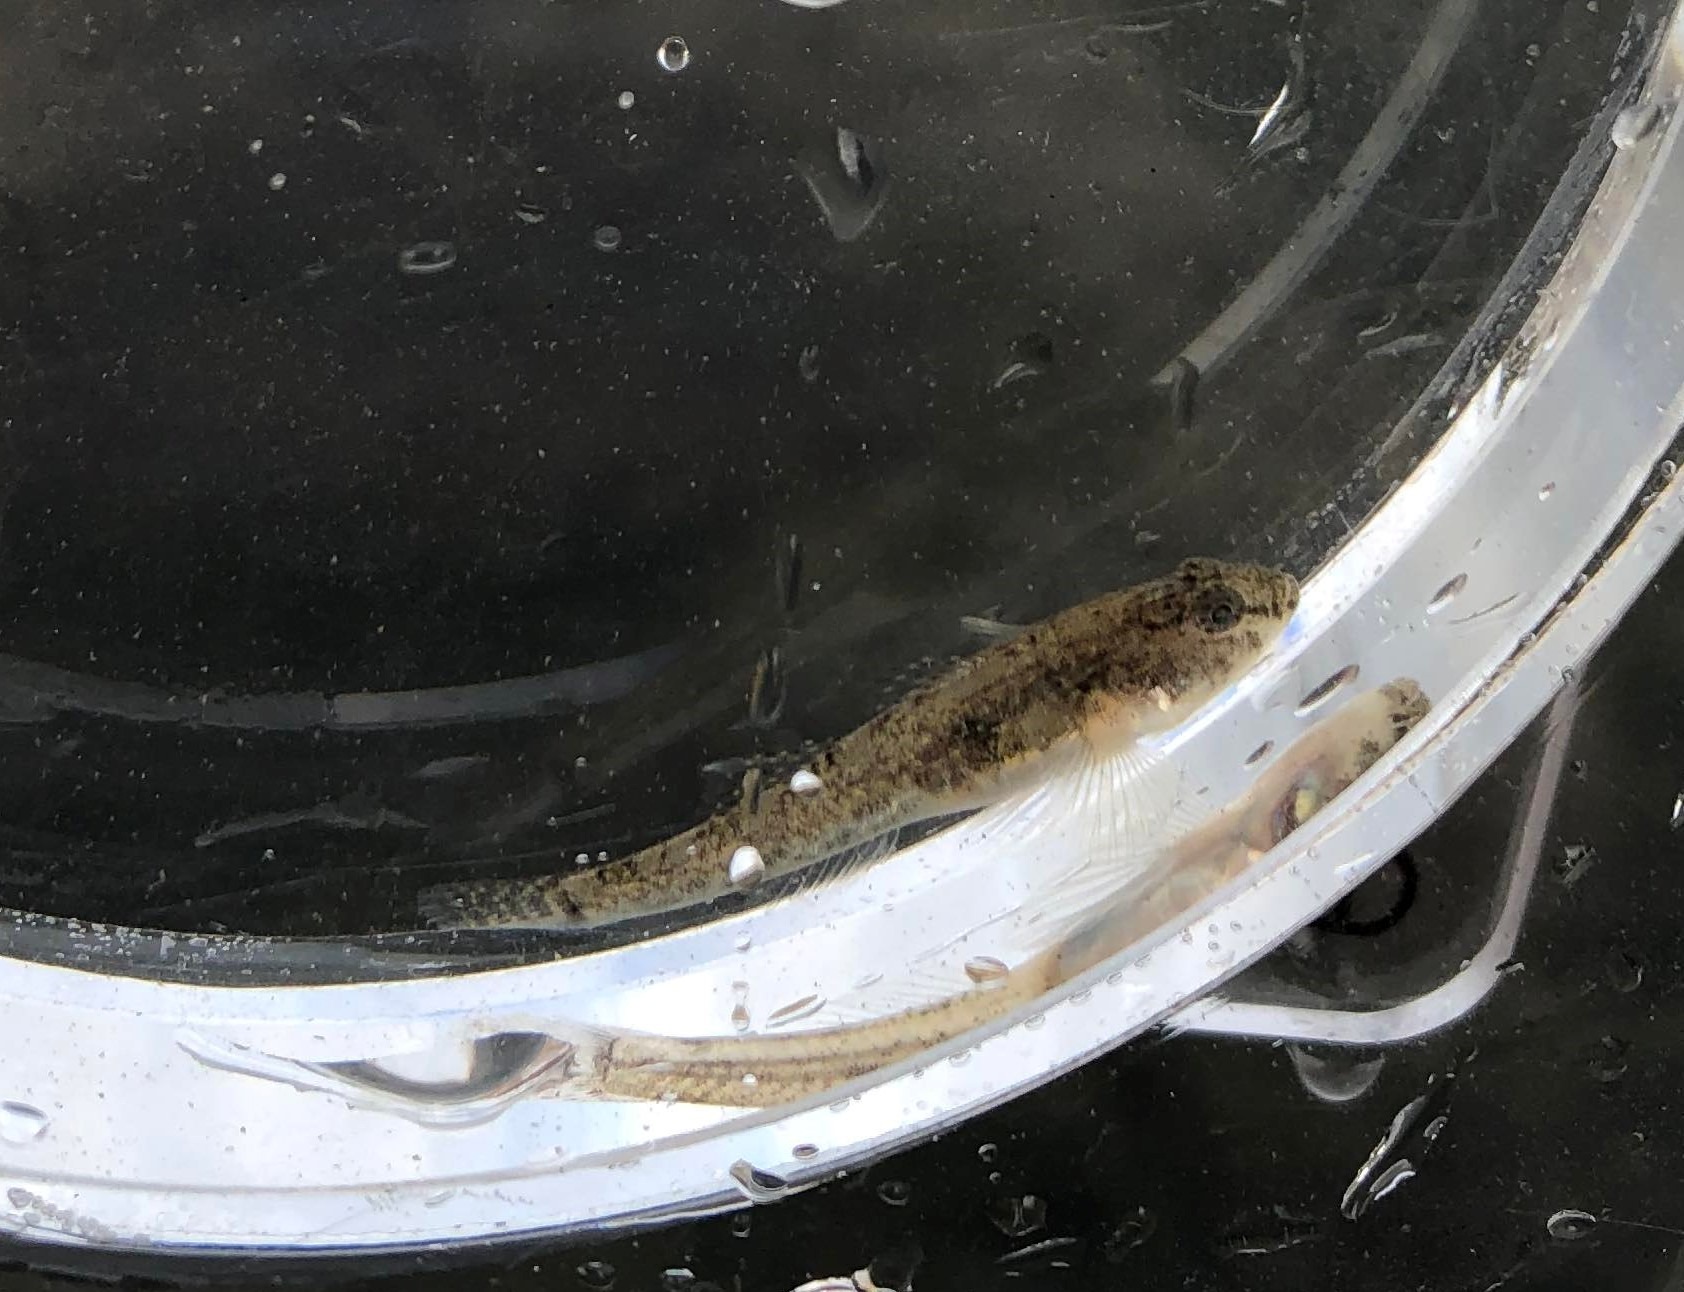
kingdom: Animalia
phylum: Chordata
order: Perciformes
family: Gobiidae
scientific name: Gobiidae
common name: Kutlingefamilien
